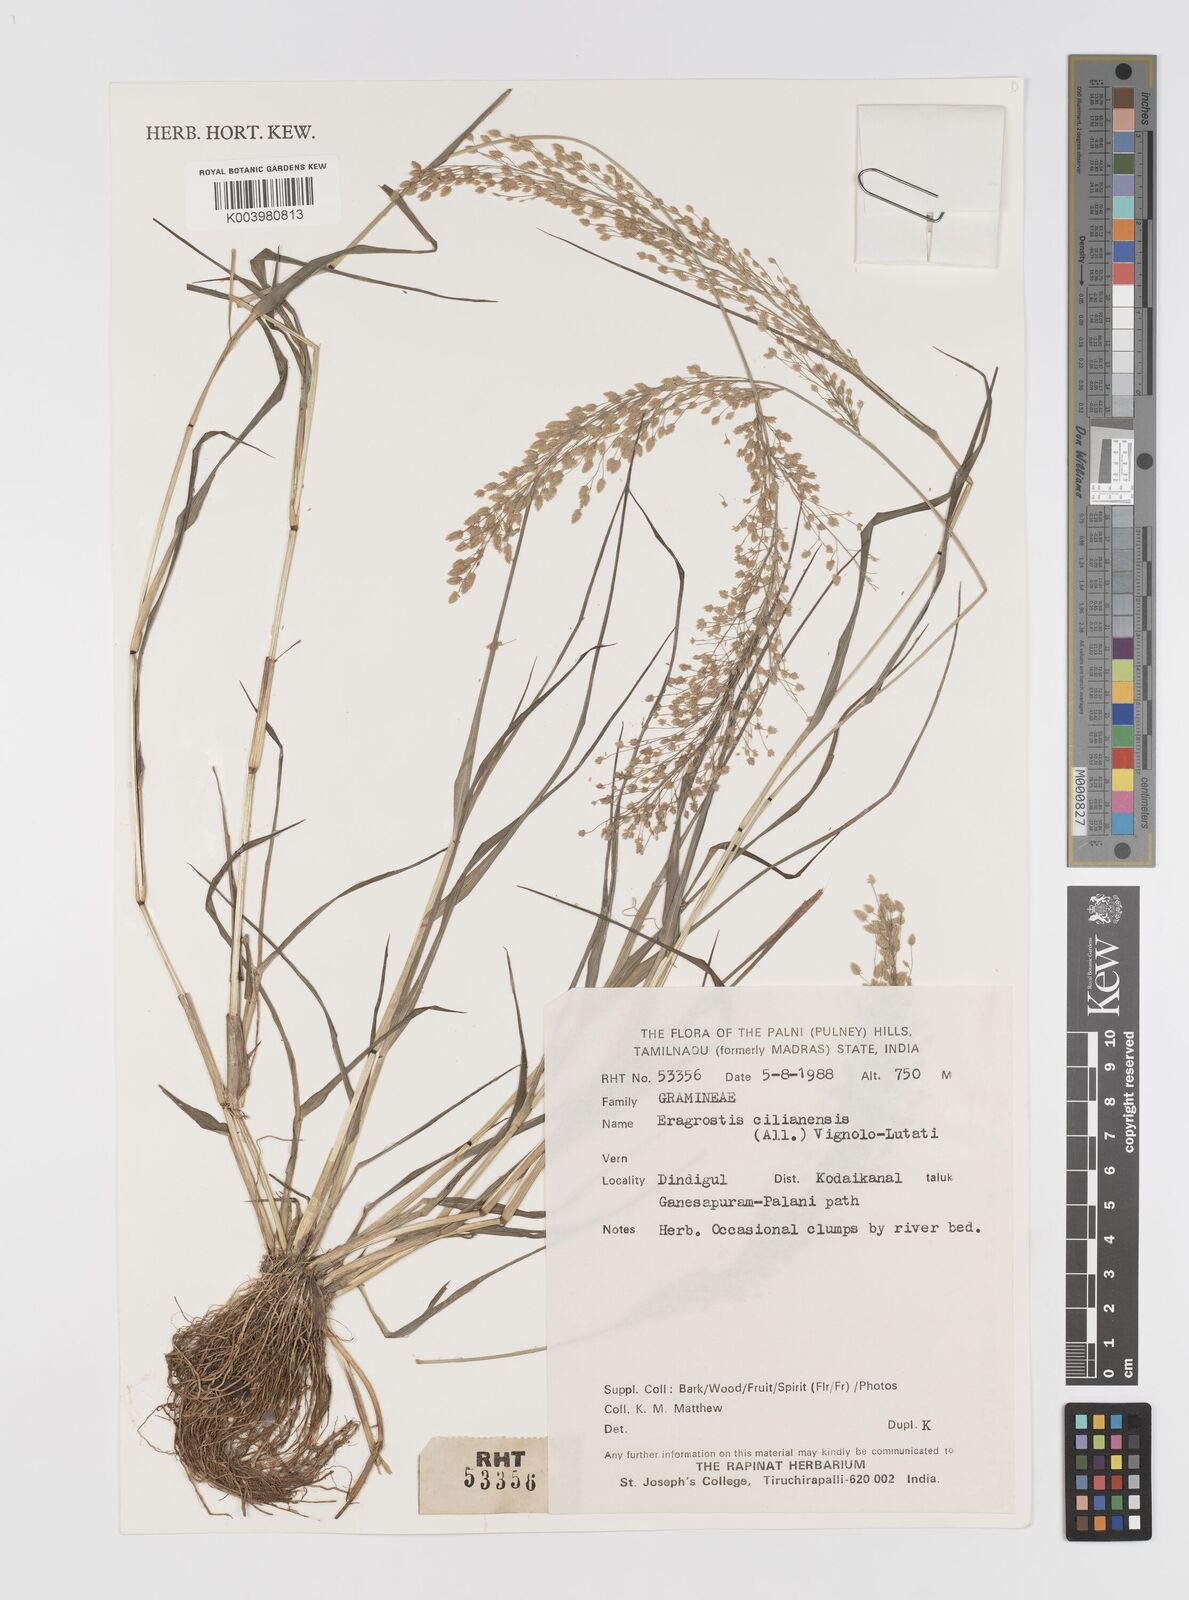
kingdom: Plantae
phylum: Tracheophyta
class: Liliopsida
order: Poales
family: Poaceae
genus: Eragrostis
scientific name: Eragrostis cilianensis
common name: Stinkgrass
